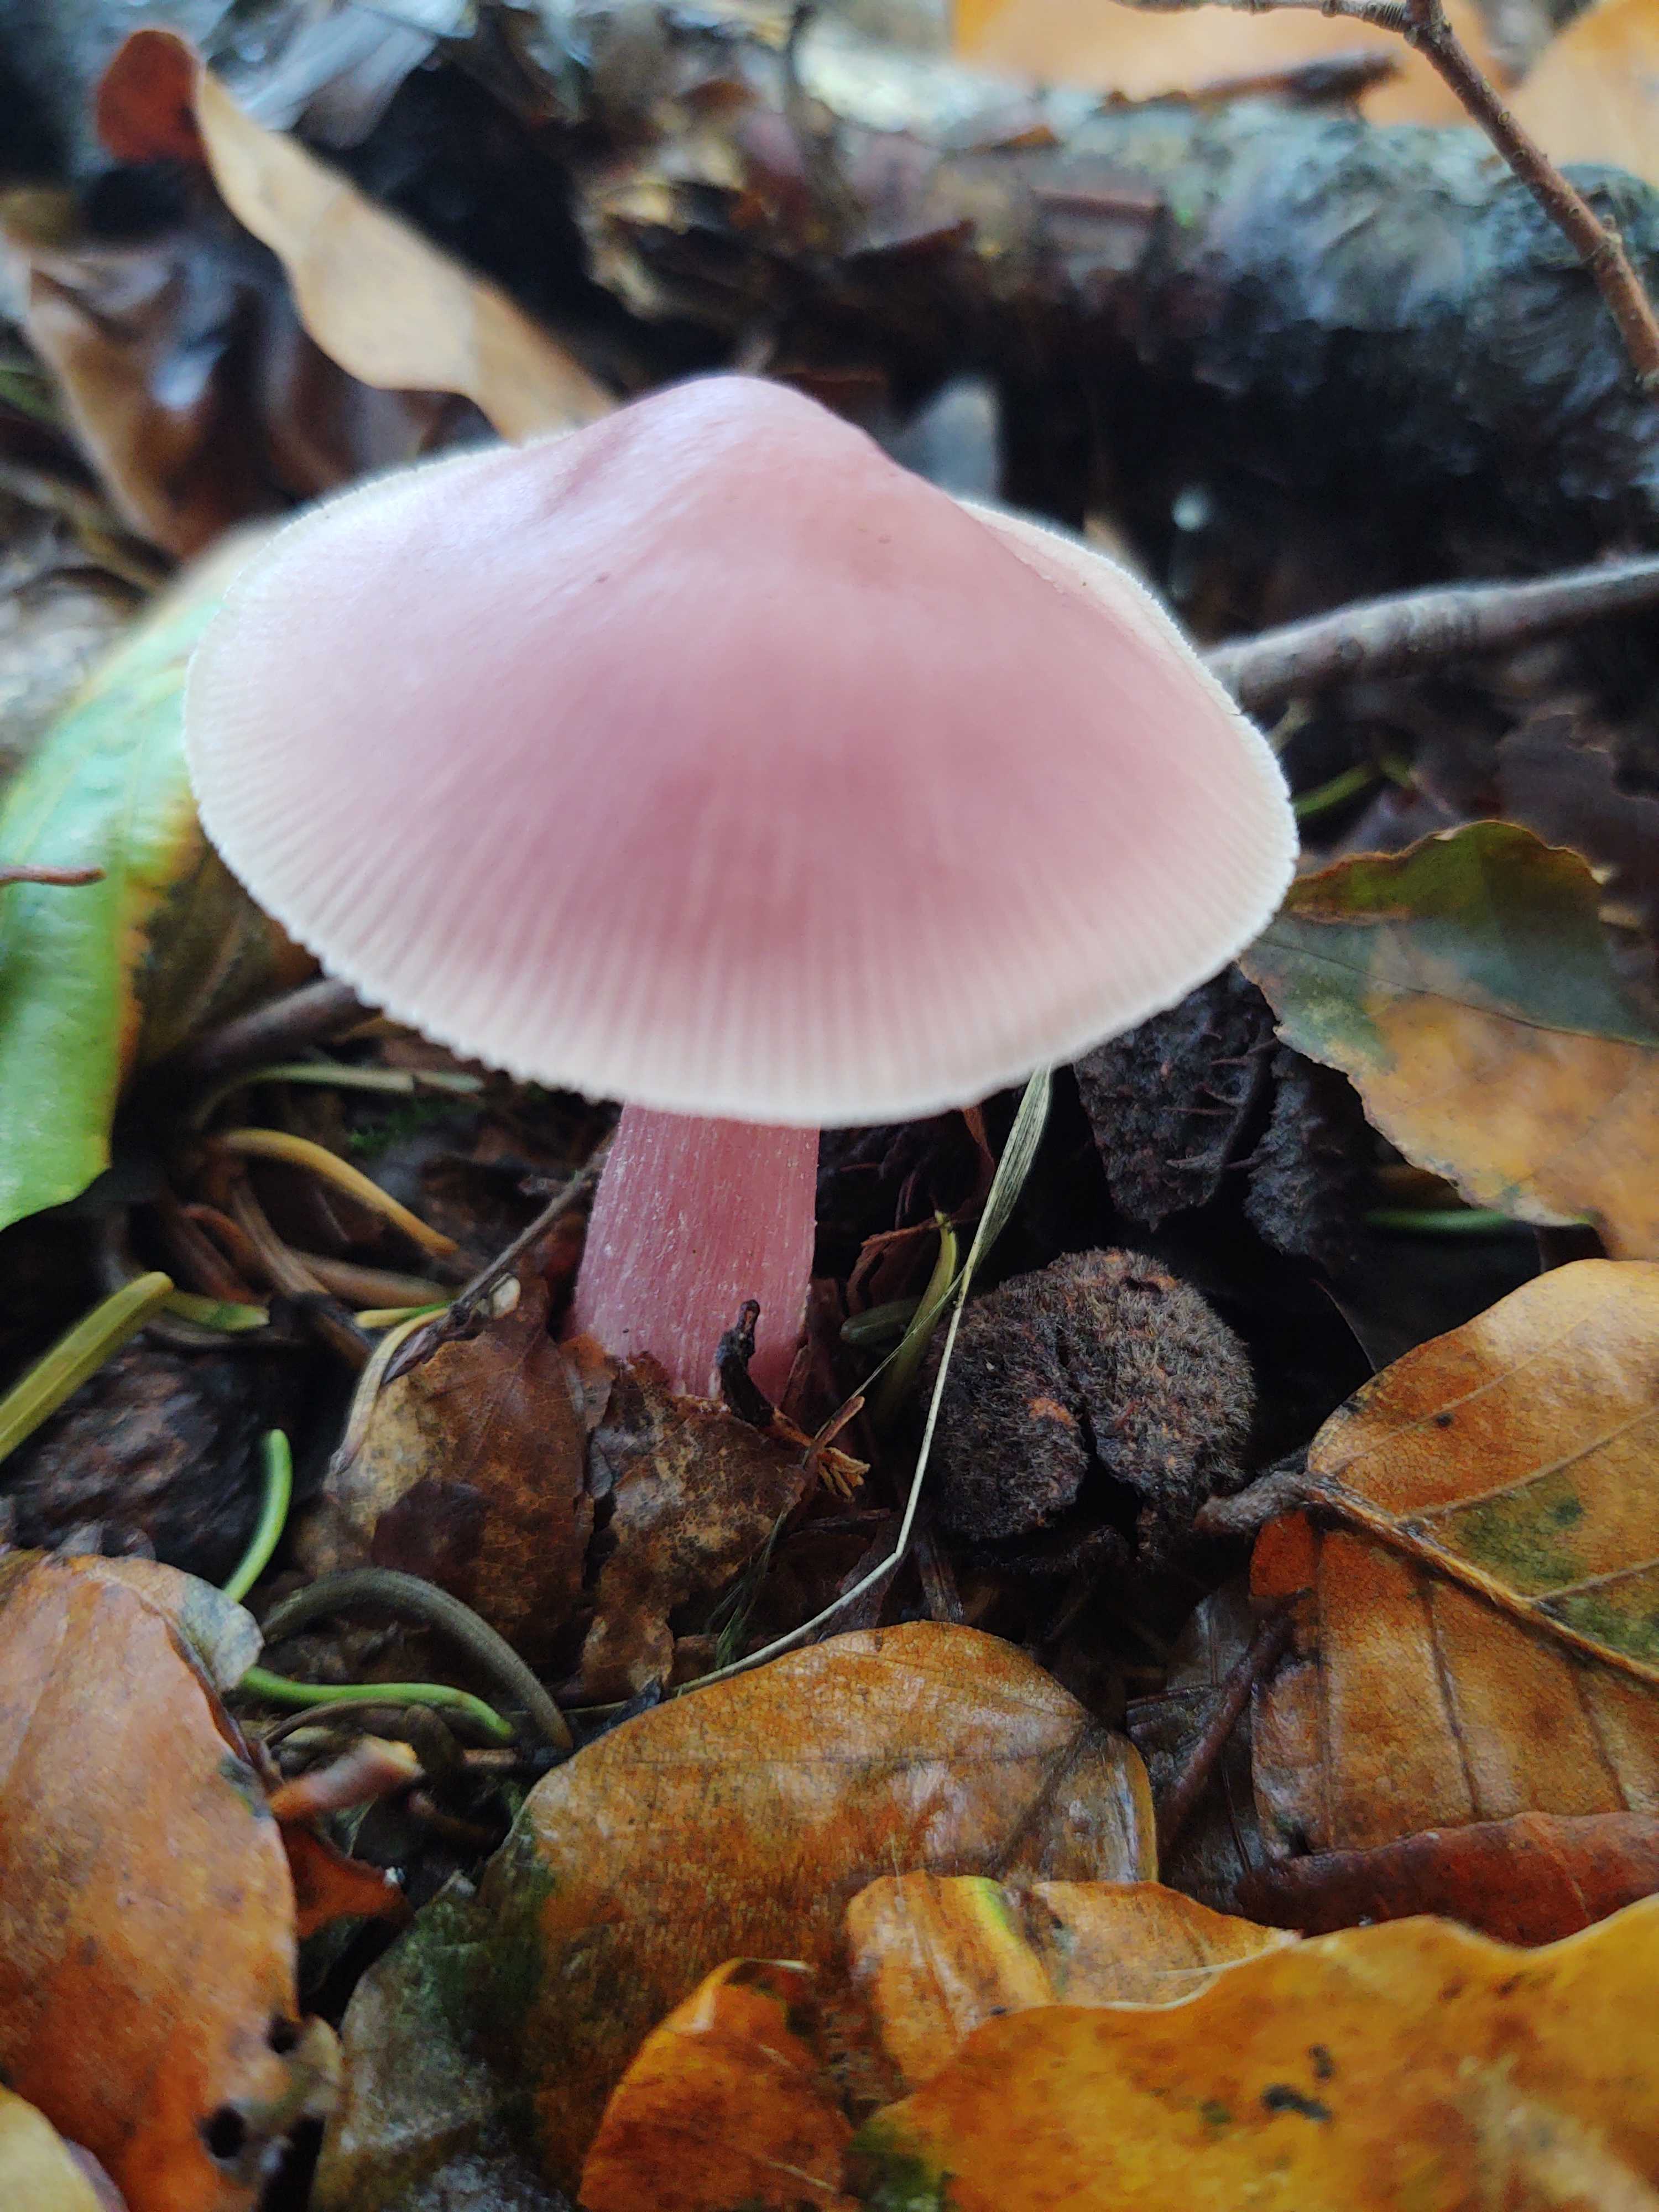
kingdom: Fungi
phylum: Basidiomycota
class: Agaricomycetes
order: Agaricales
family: Mycenaceae
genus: Mycena
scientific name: Mycena rosea
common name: rosa huesvamp
